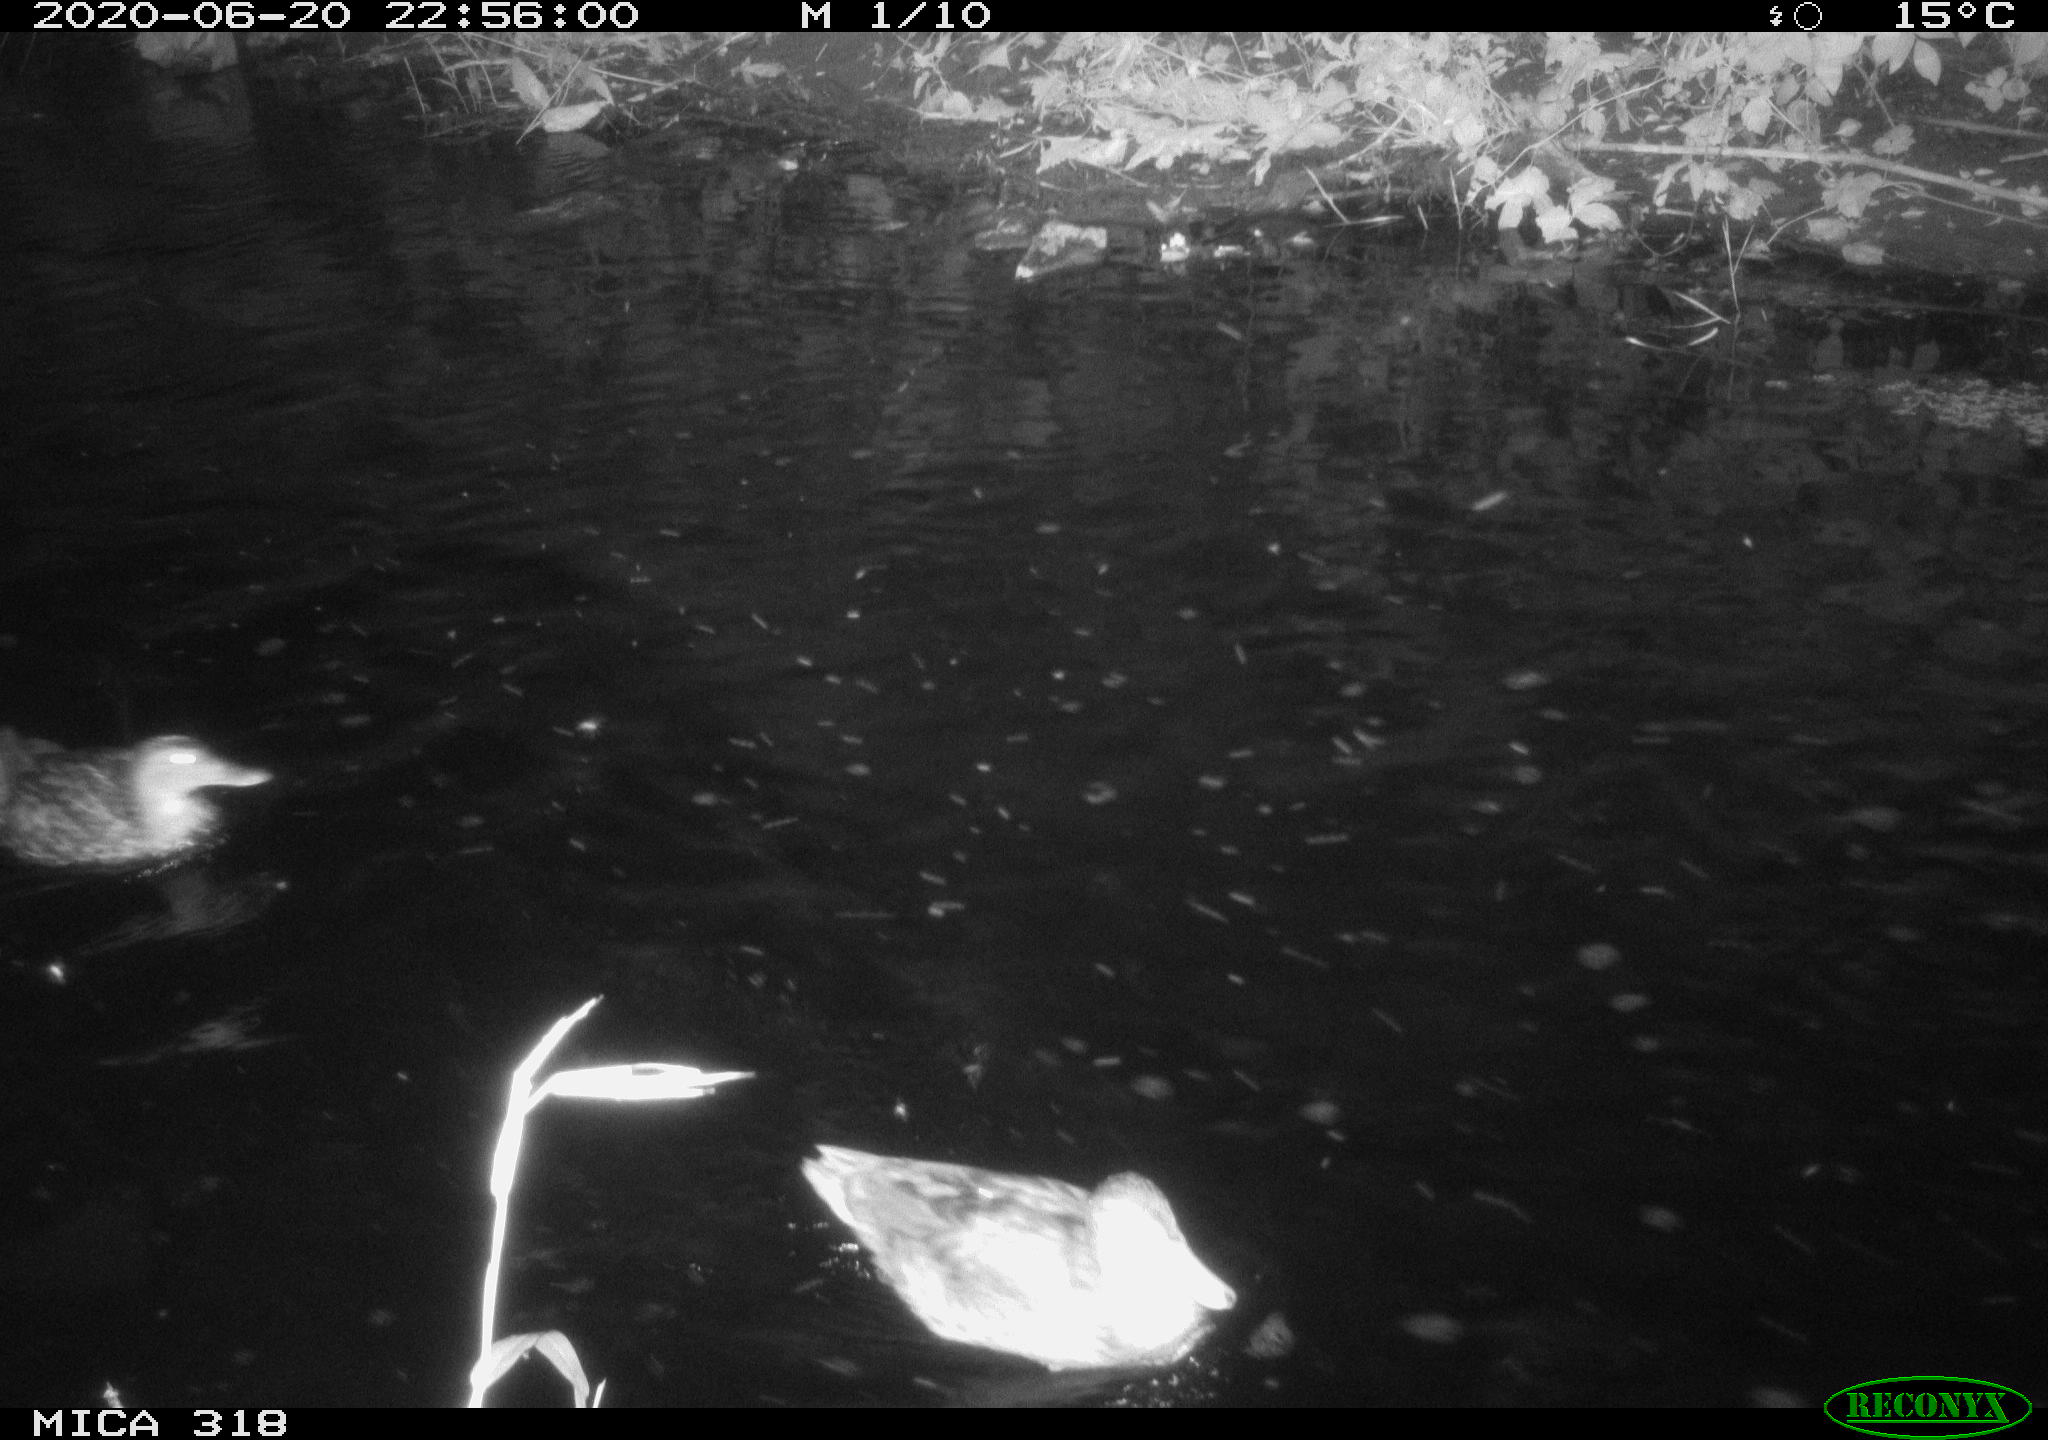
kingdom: Animalia
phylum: Chordata
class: Aves
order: Anseriformes
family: Anatidae
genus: Anas
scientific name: Anas platyrhynchos
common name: Mallard
